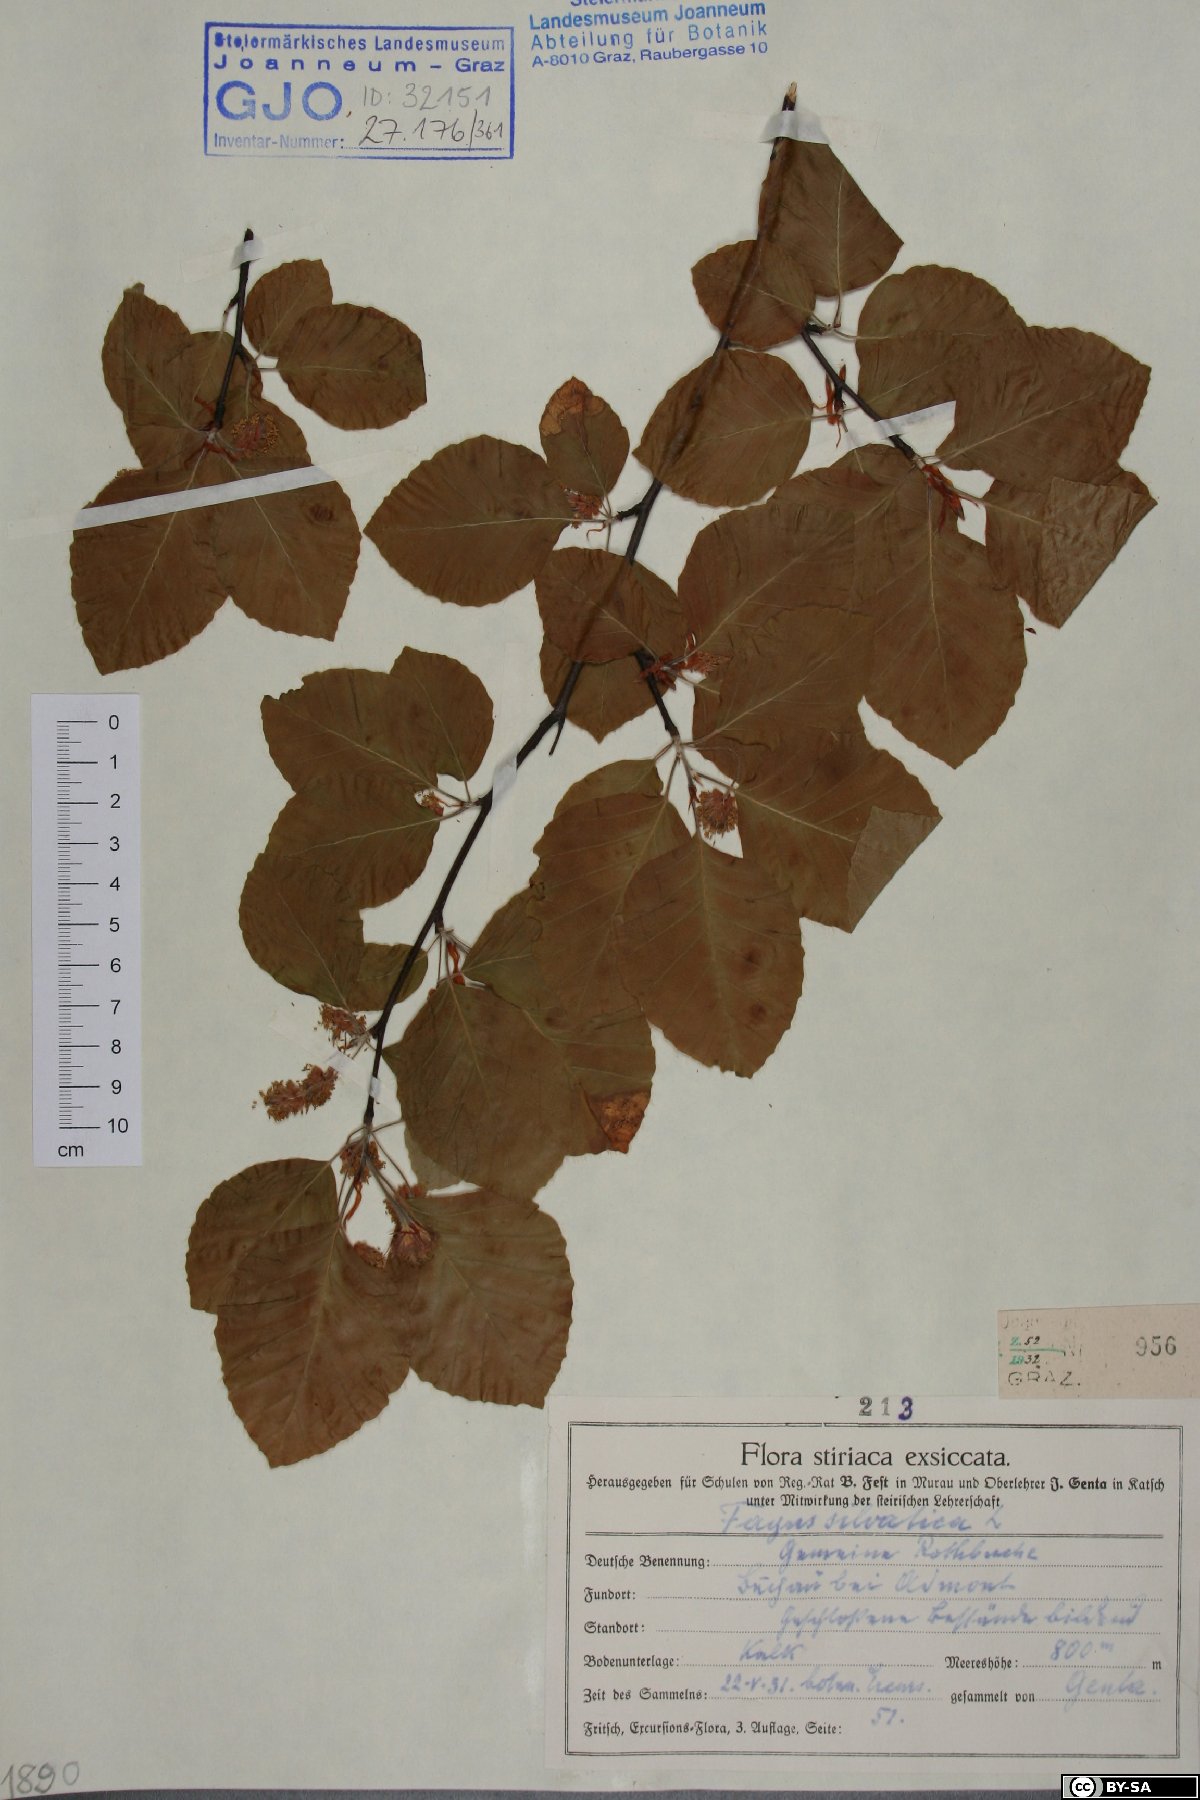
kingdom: Plantae
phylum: Tracheophyta
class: Magnoliopsida
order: Fagales
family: Fagaceae
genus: Fagus
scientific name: Fagus sylvatica
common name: Beech
